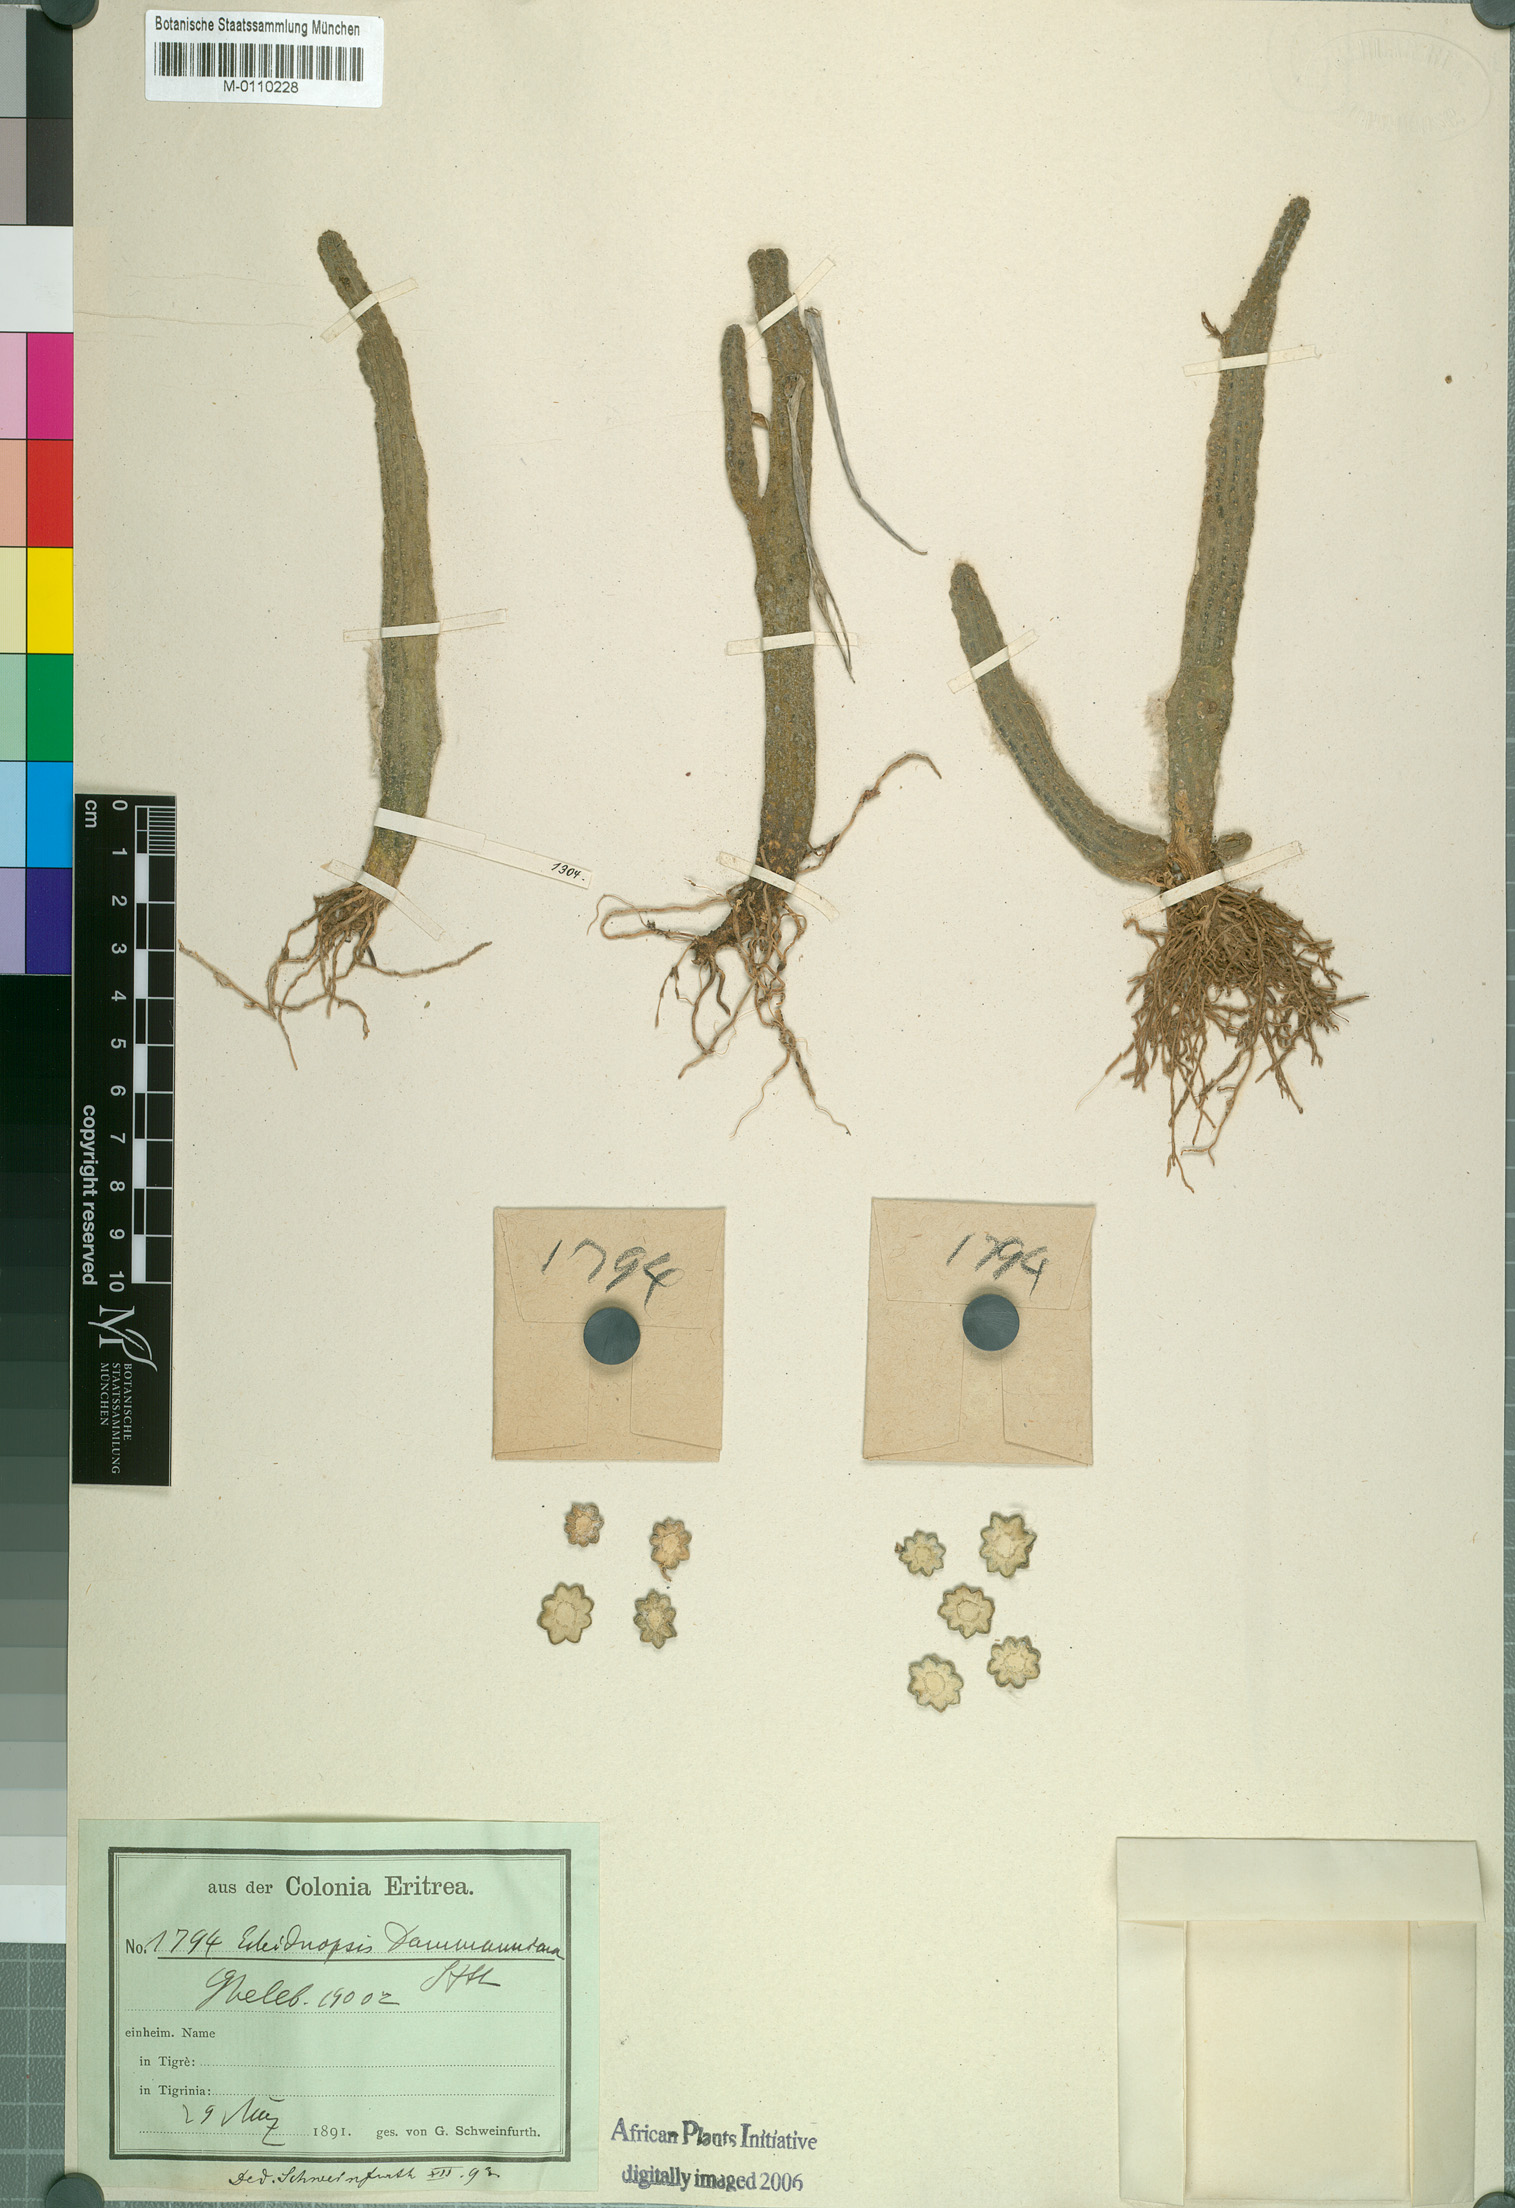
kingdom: Plantae
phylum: Tracheophyta
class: Magnoliopsida
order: Gentianales
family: Apocynaceae
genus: Ceropegia
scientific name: Ceropegia dammanniana
